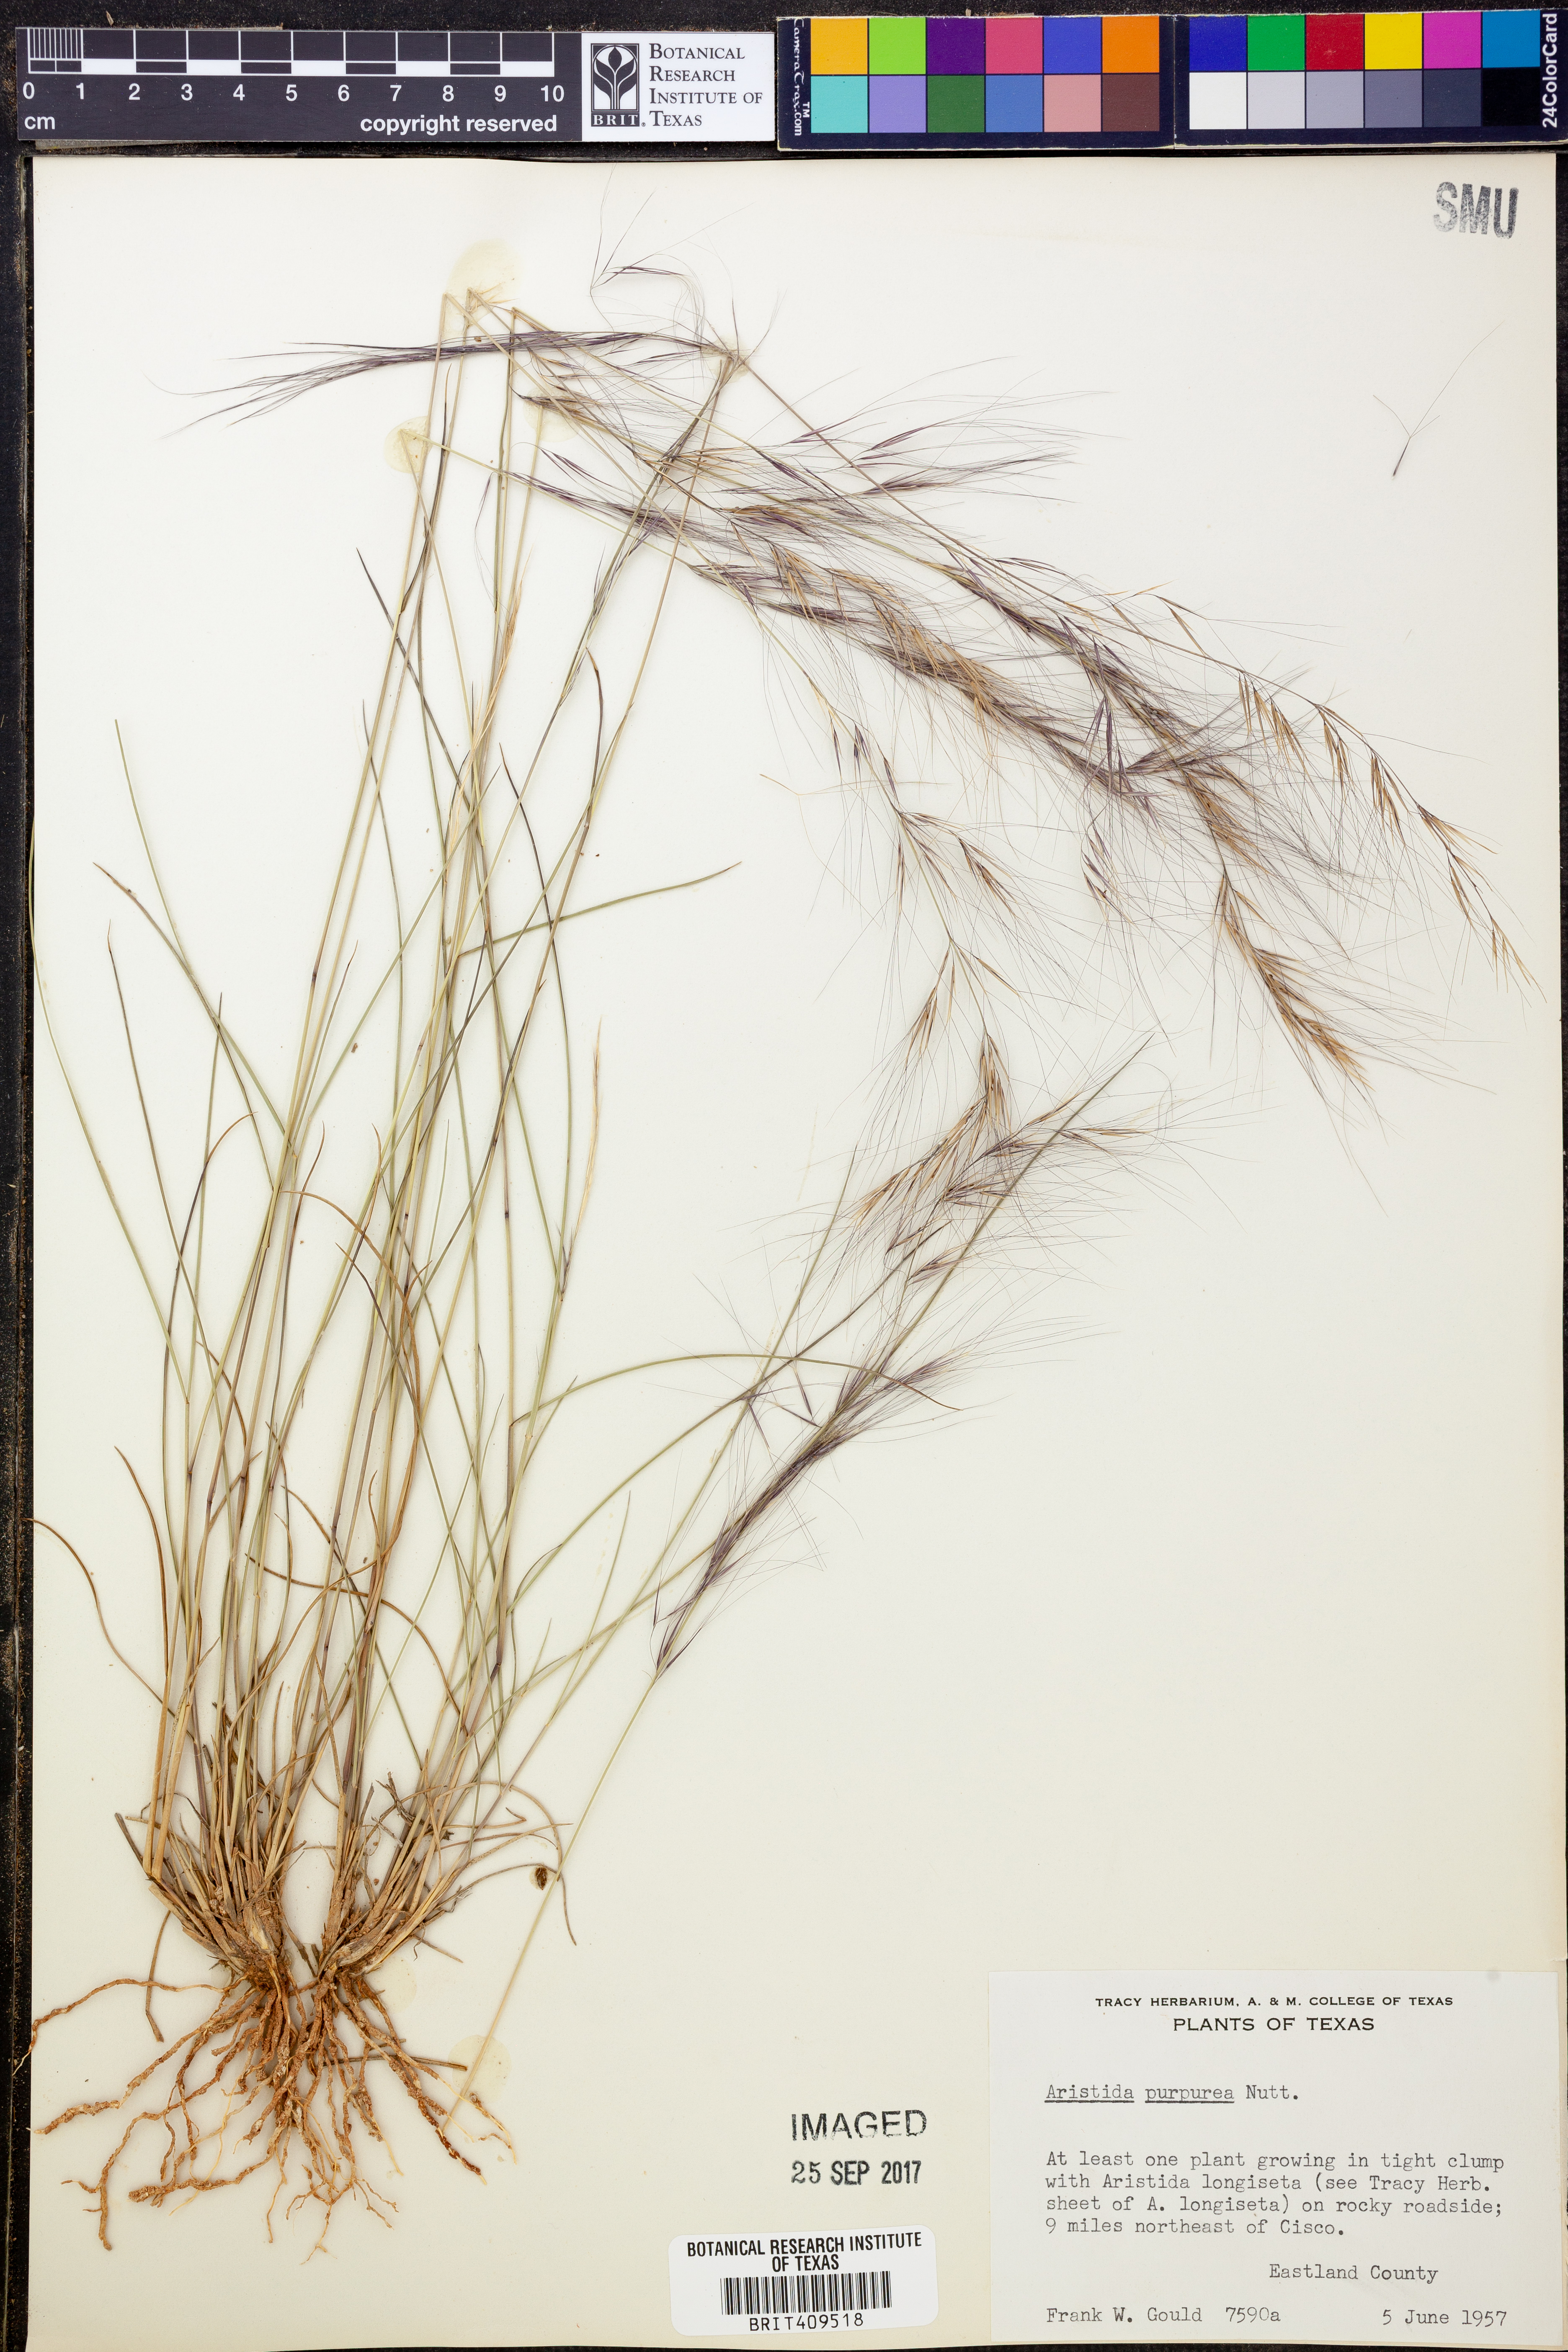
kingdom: Plantae
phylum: Tracheophyta
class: Liliopsida
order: Poales
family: Poaceae
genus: Aristida
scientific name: Aristida purpurea
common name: Purple threeawn
